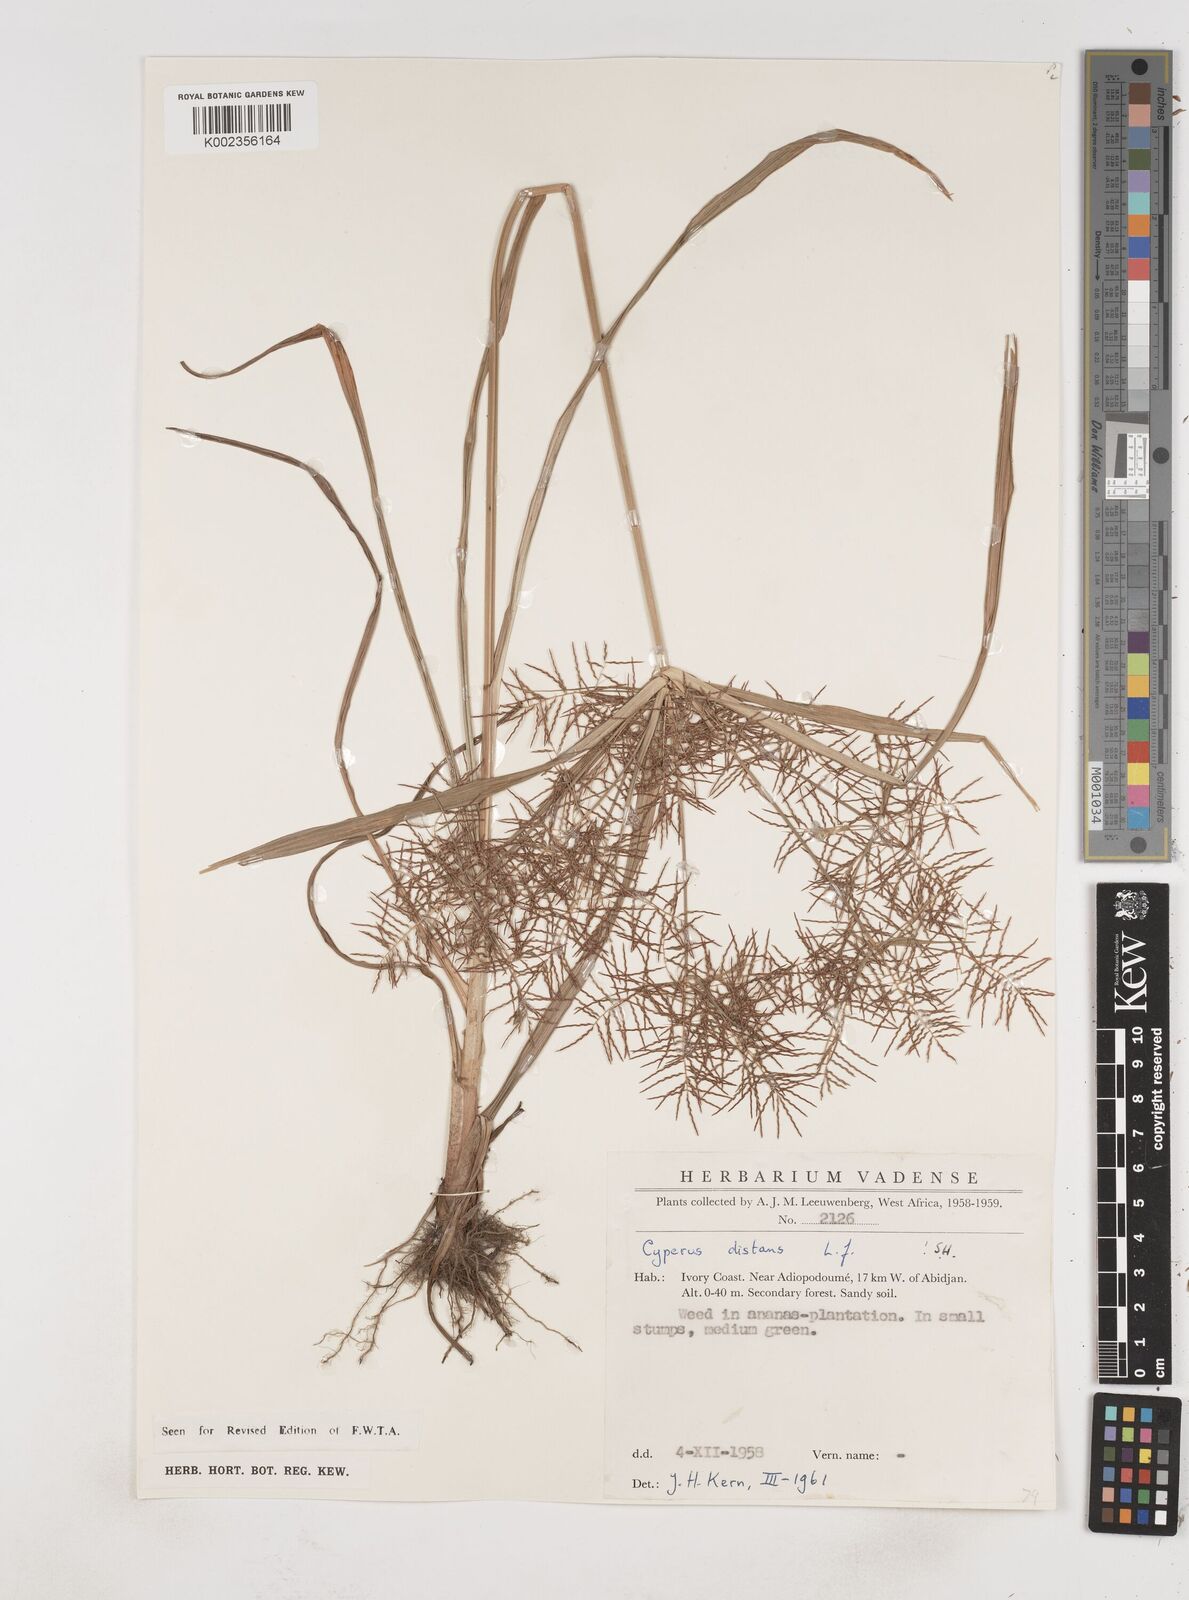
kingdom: Plantae
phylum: Tracheophyta
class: Liliopsida
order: Poales
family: Cyperaceae
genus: Cyperus
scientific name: Cyperus distans
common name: Slender cyperus
